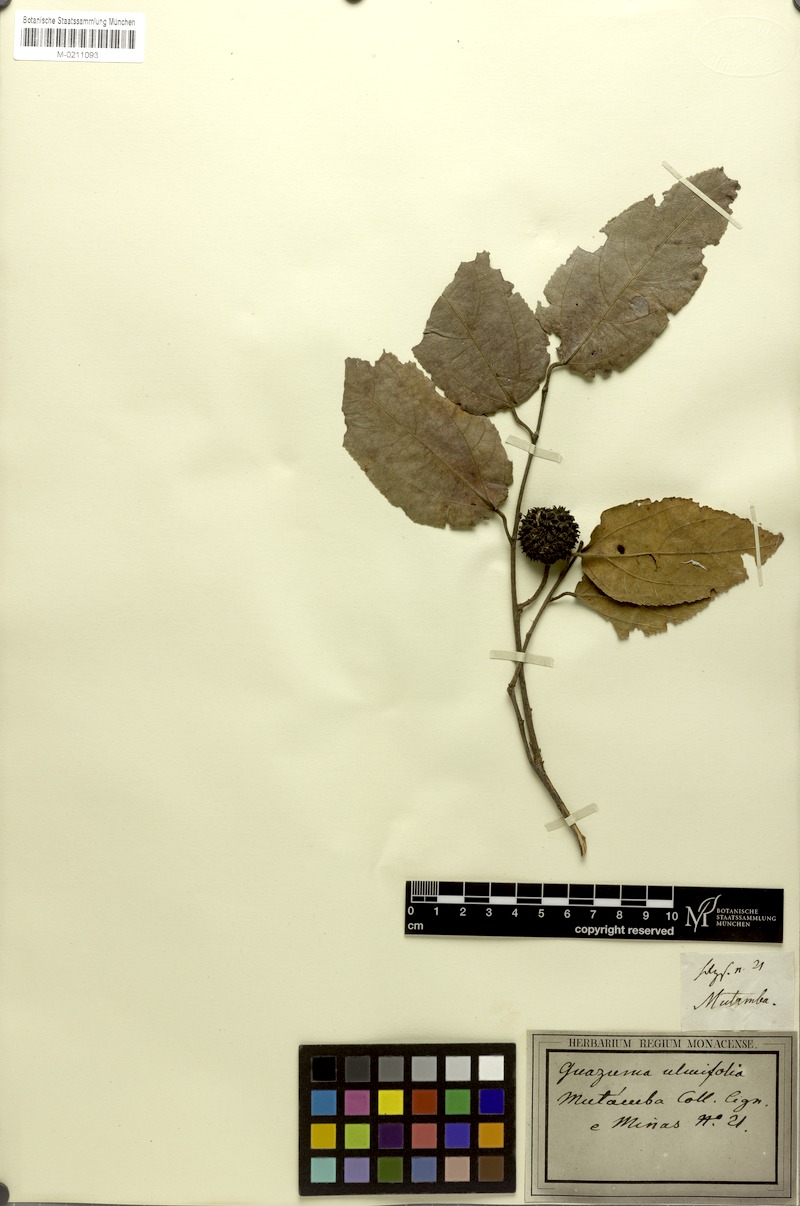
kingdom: Plantae
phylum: Tracheophyta
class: Magnoliopsida
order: Malvales
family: Malvaceae
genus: Guazuma
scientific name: Guazuma ulmifolia
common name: Bastard-cedar
